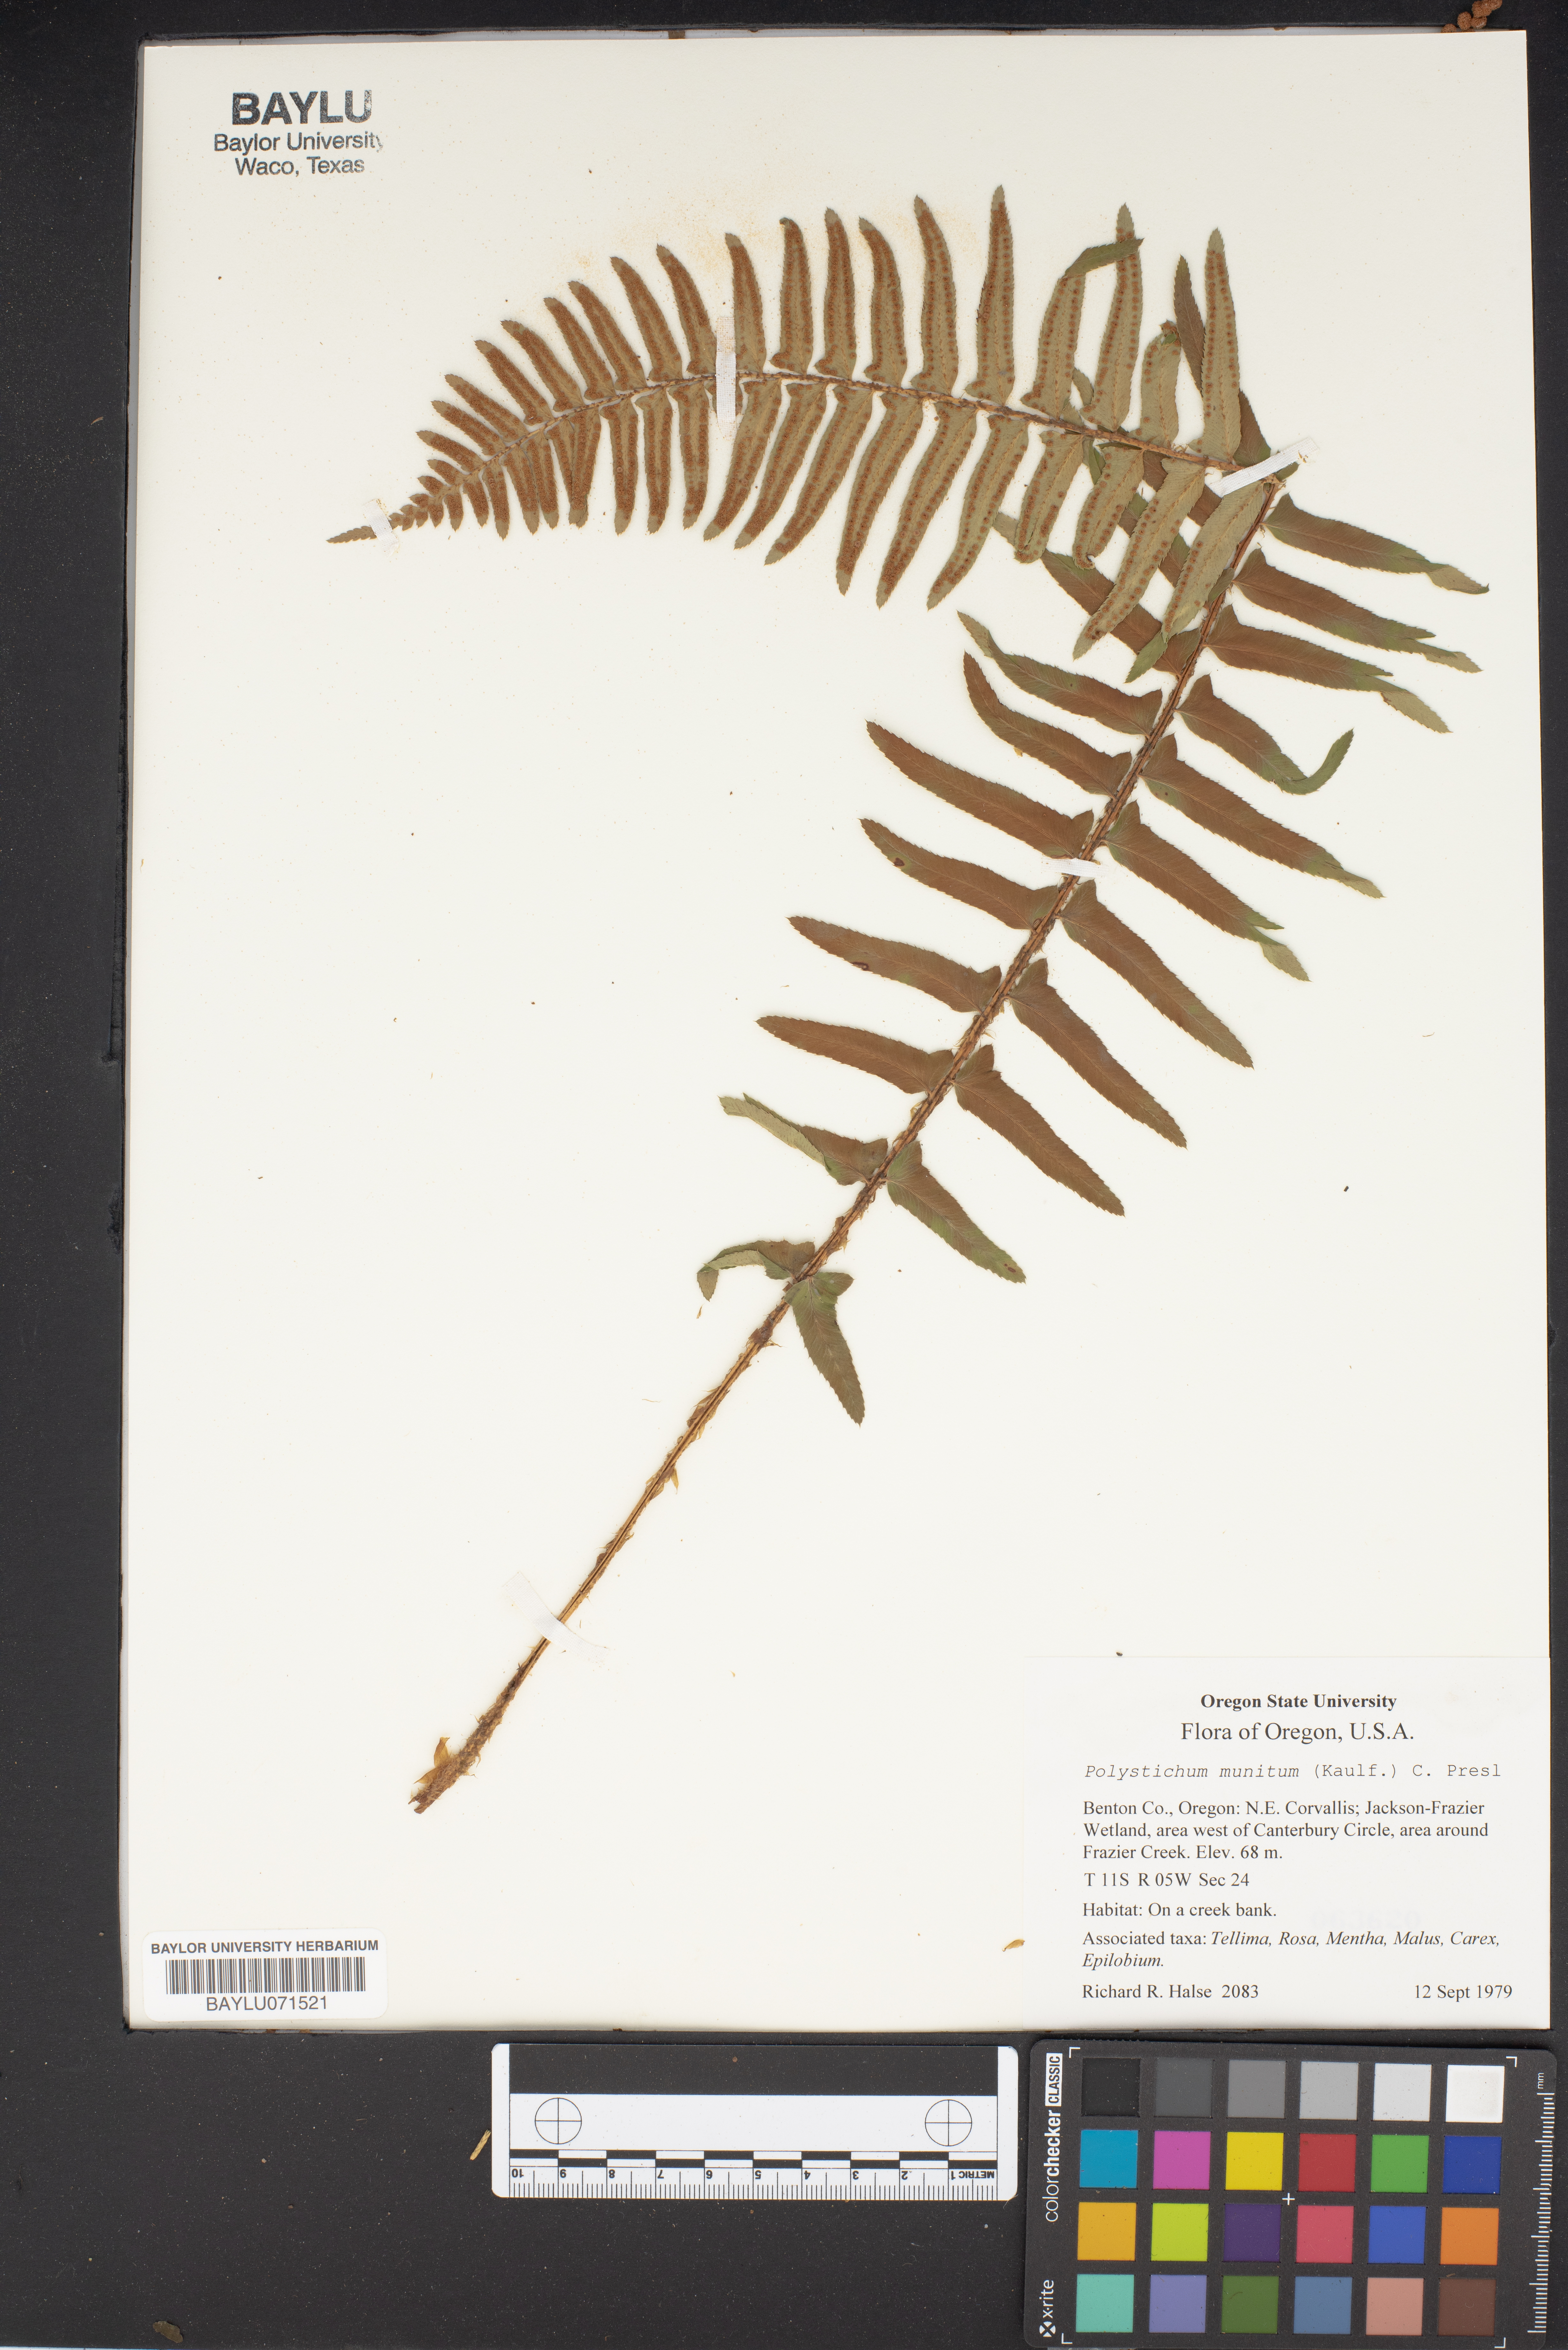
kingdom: Plantae
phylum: Tracheophyta
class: Polypodiopsida
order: Polypodiales
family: Dryopteridaceae
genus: Polystichum
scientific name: Polystichum munitum
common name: Western sword-fern
